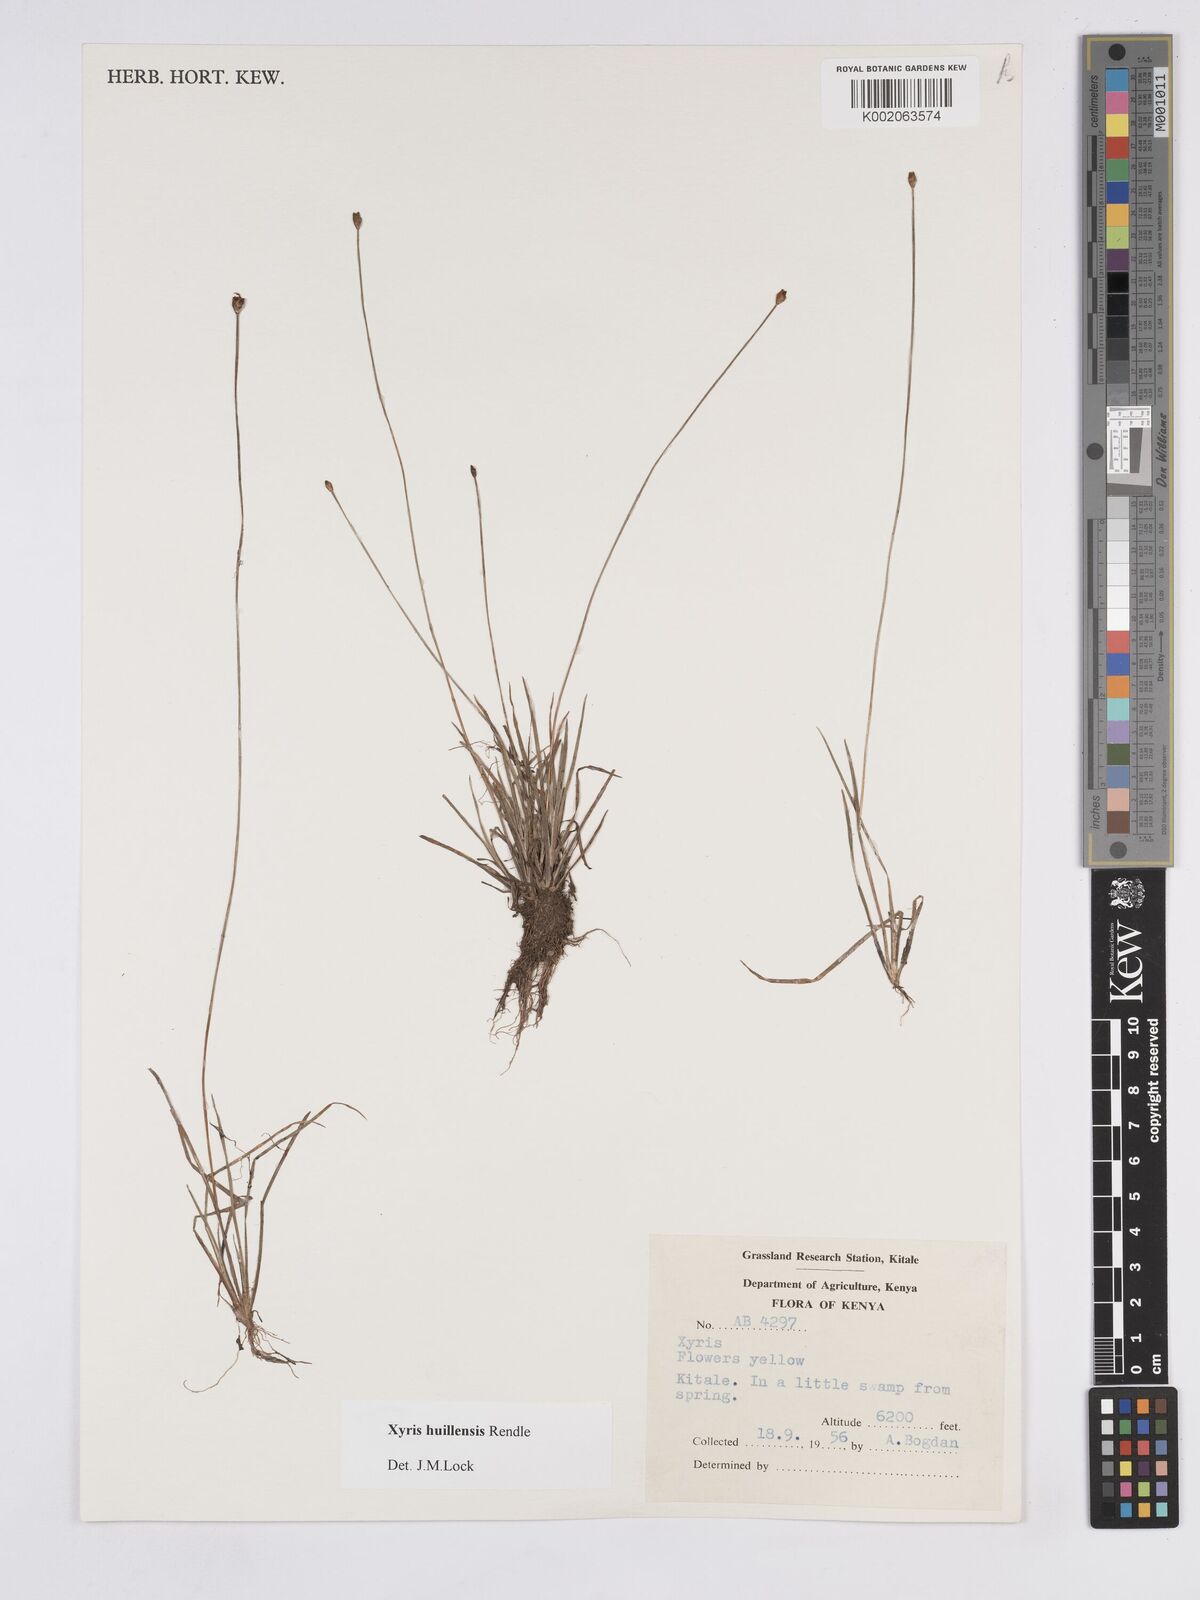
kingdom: Plantae
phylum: Tracheophyta
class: Liliopsida
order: Poales
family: Xyridaceae
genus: Xyris
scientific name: Xyris huillensis
